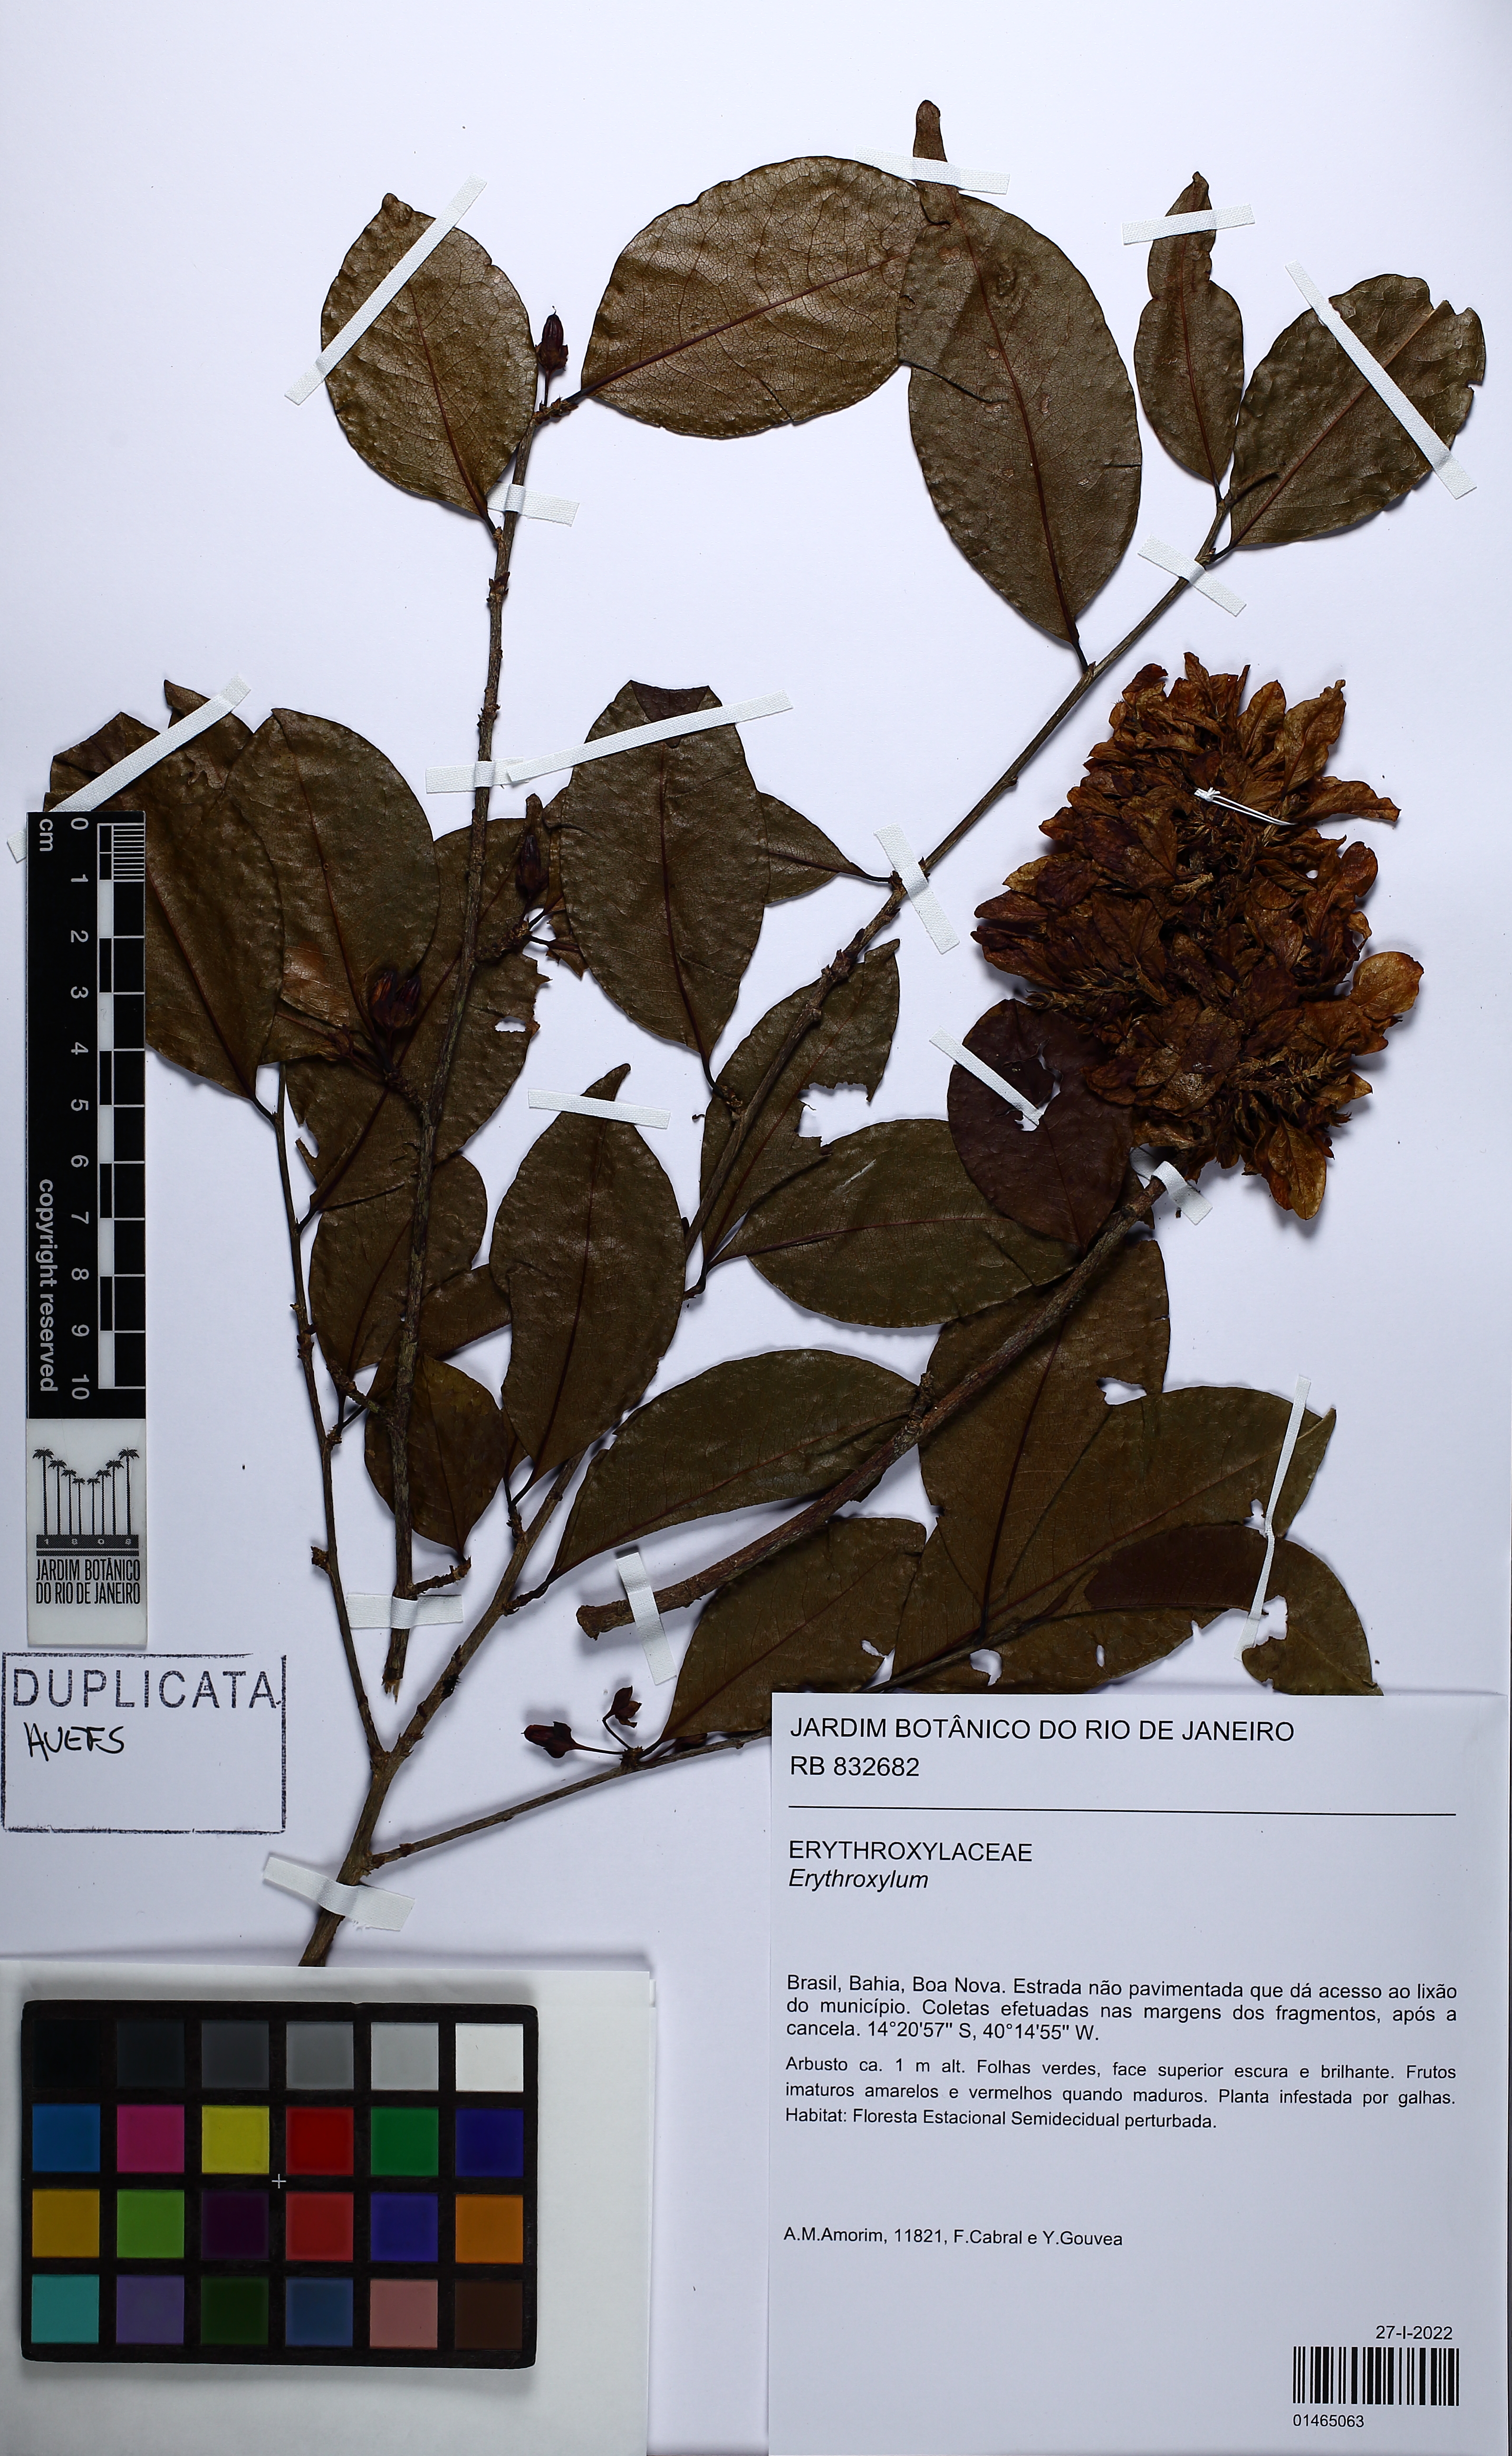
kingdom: Plantae
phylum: Tracheophyta
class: Magnoliopsida
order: Malpighiales
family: Erythroxylaceae
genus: Erythroxylum
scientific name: Erythroxylum
